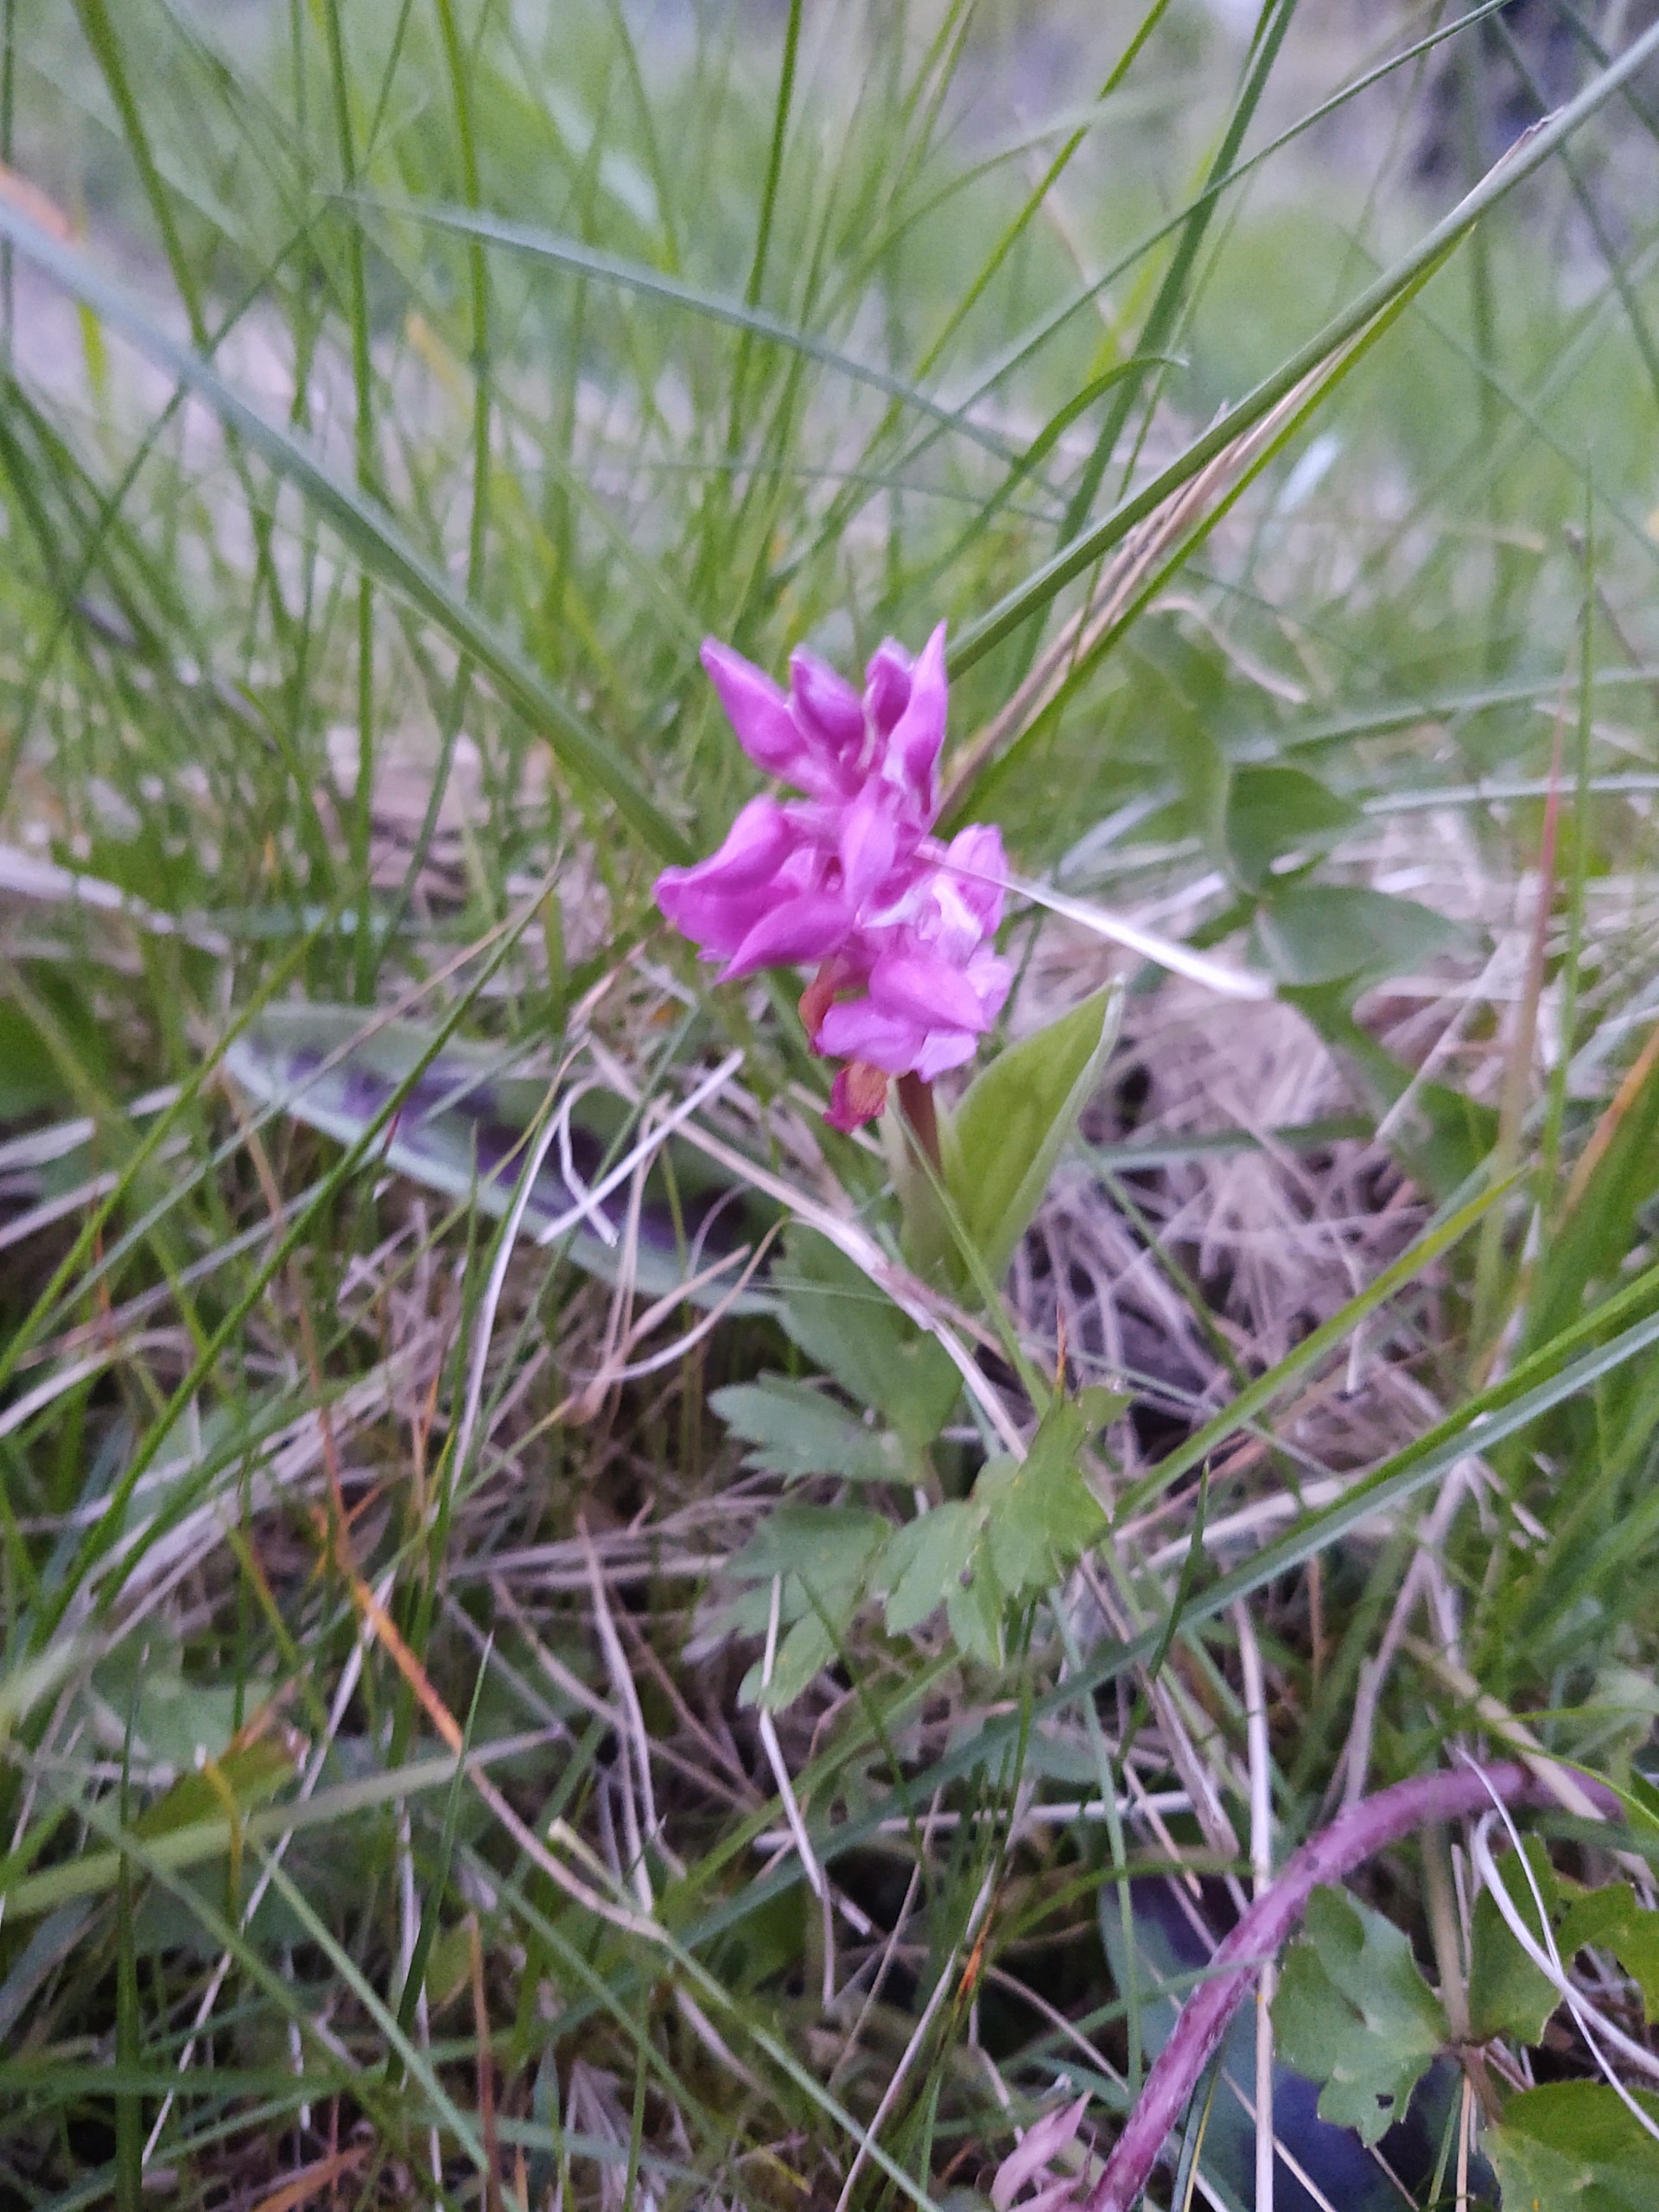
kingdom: Plantae
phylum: Tracheophyta
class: Liliopsida
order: Asparagales
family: Orchidaceae
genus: Orchis
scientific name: Orchis mascula
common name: Tyndakset gøgeurt
